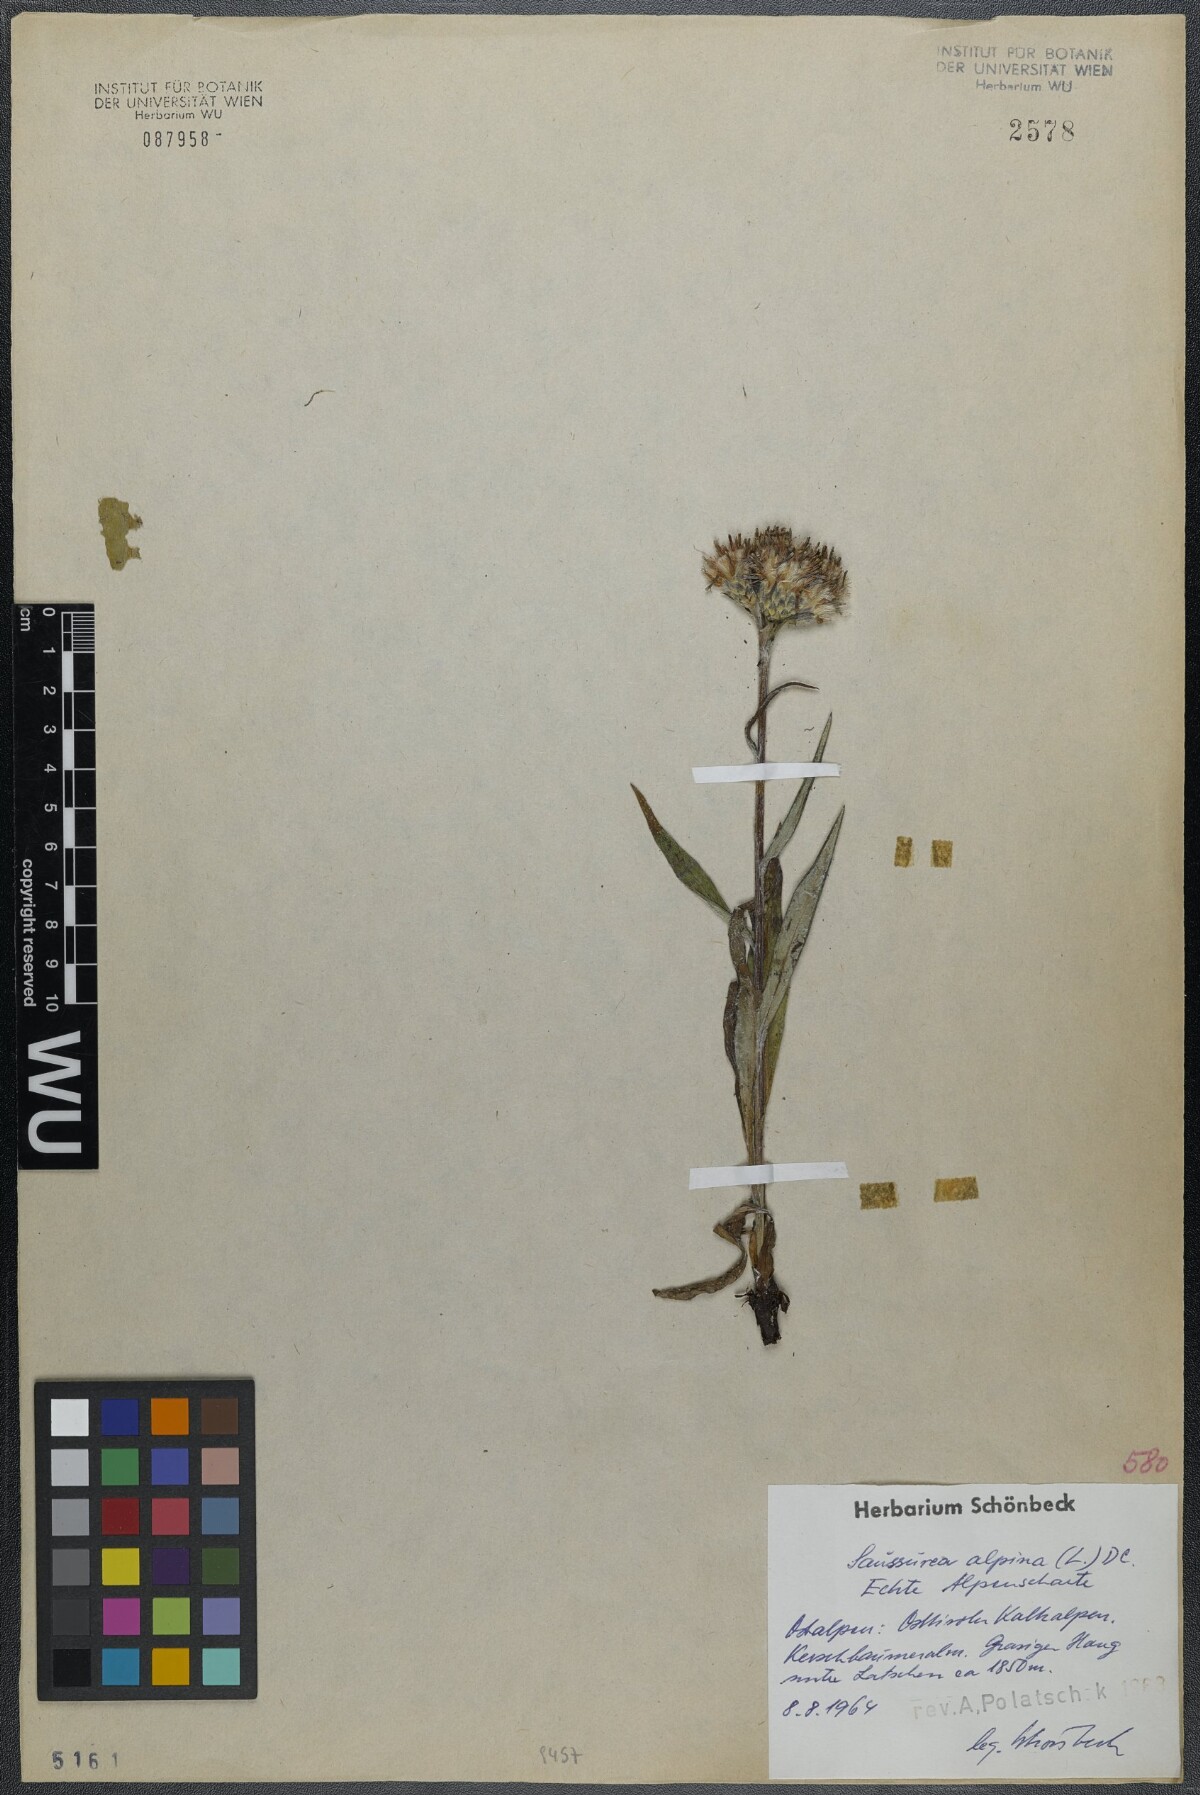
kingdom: Plantae
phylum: Tracheophyta
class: Magnoliopsida
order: Asterales
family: Asteraceae
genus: Saussurea
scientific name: Saussurea alpina
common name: Alpine saw-wort
